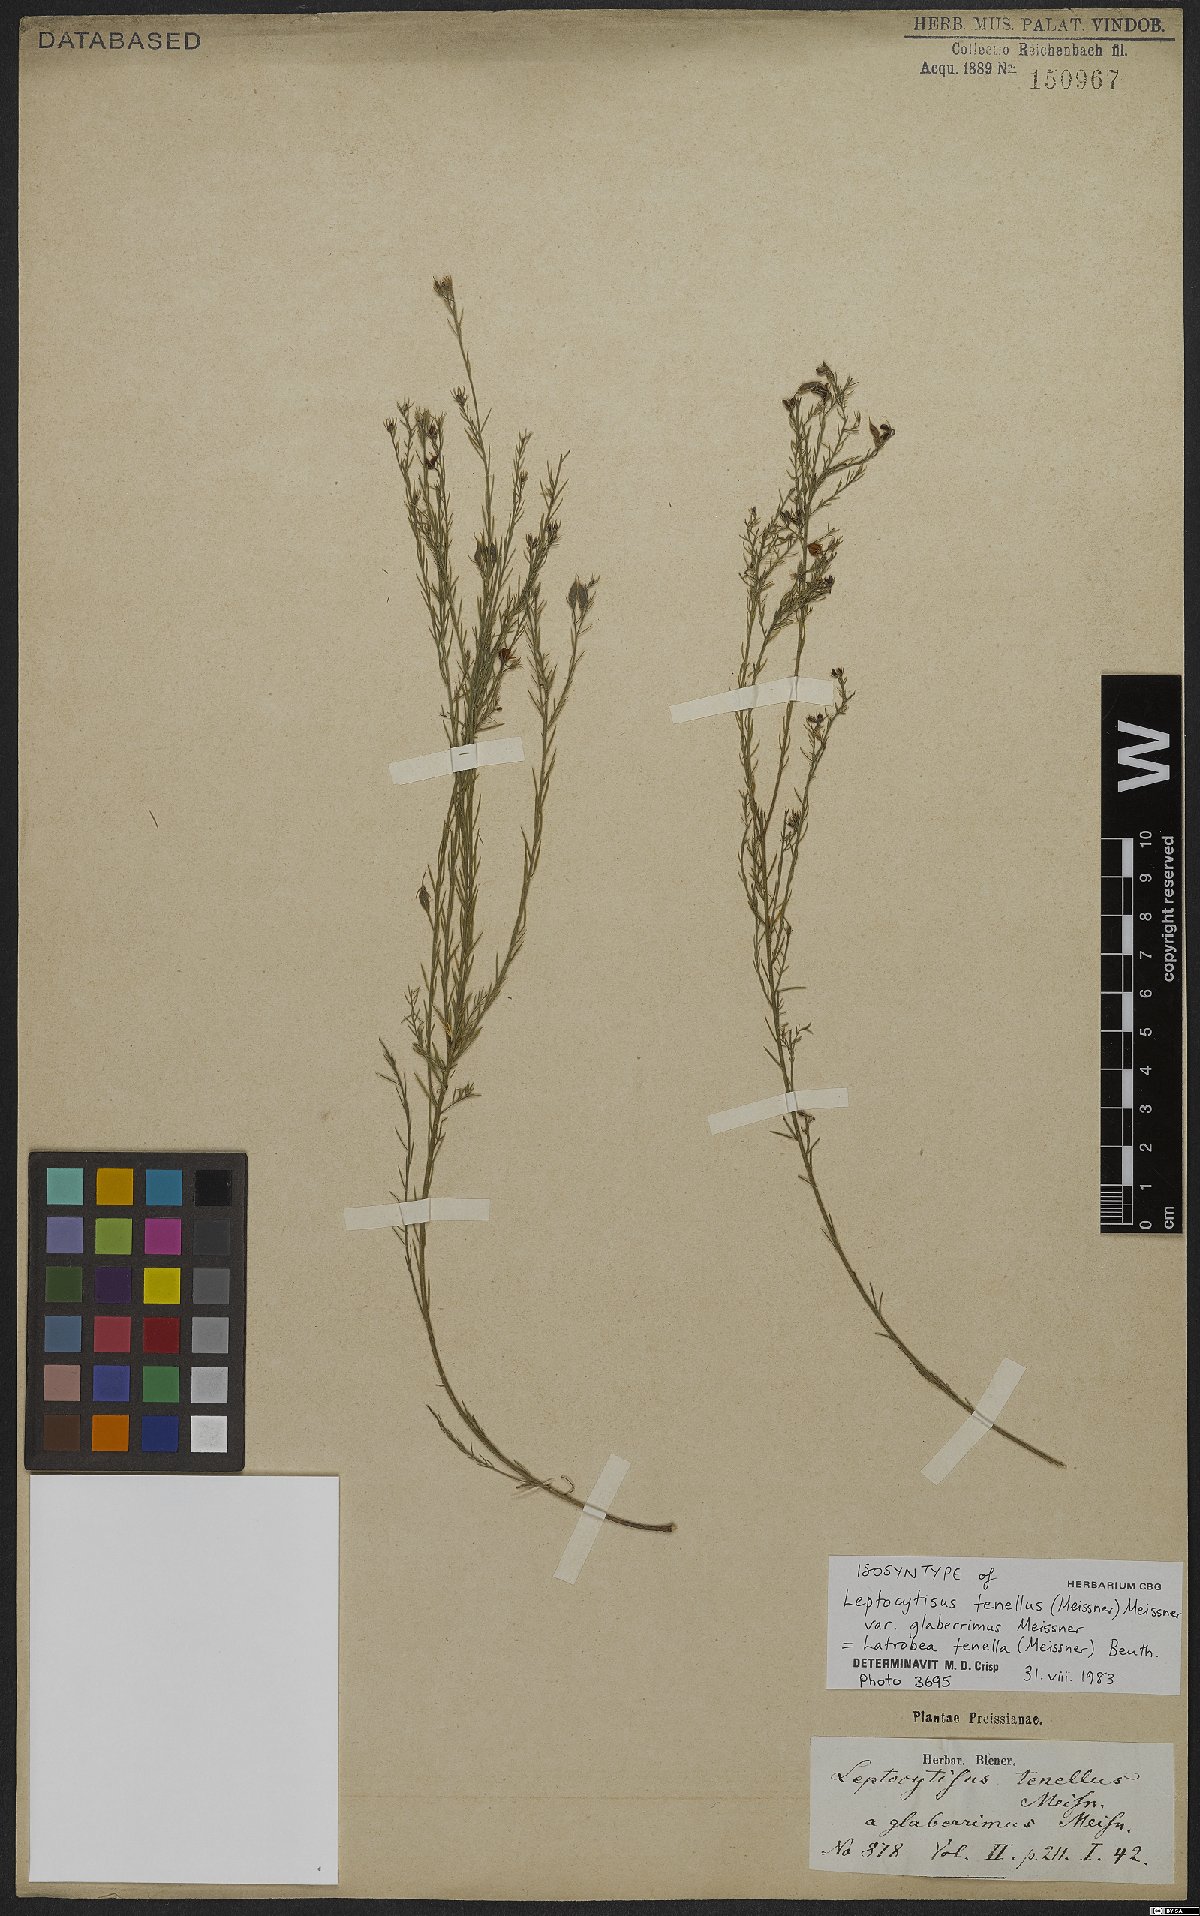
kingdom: Plantae
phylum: Tracheophyta
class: Magnoliopsida
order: Fabales
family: Fabaceae
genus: Latrobea
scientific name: Latrobea tenella
